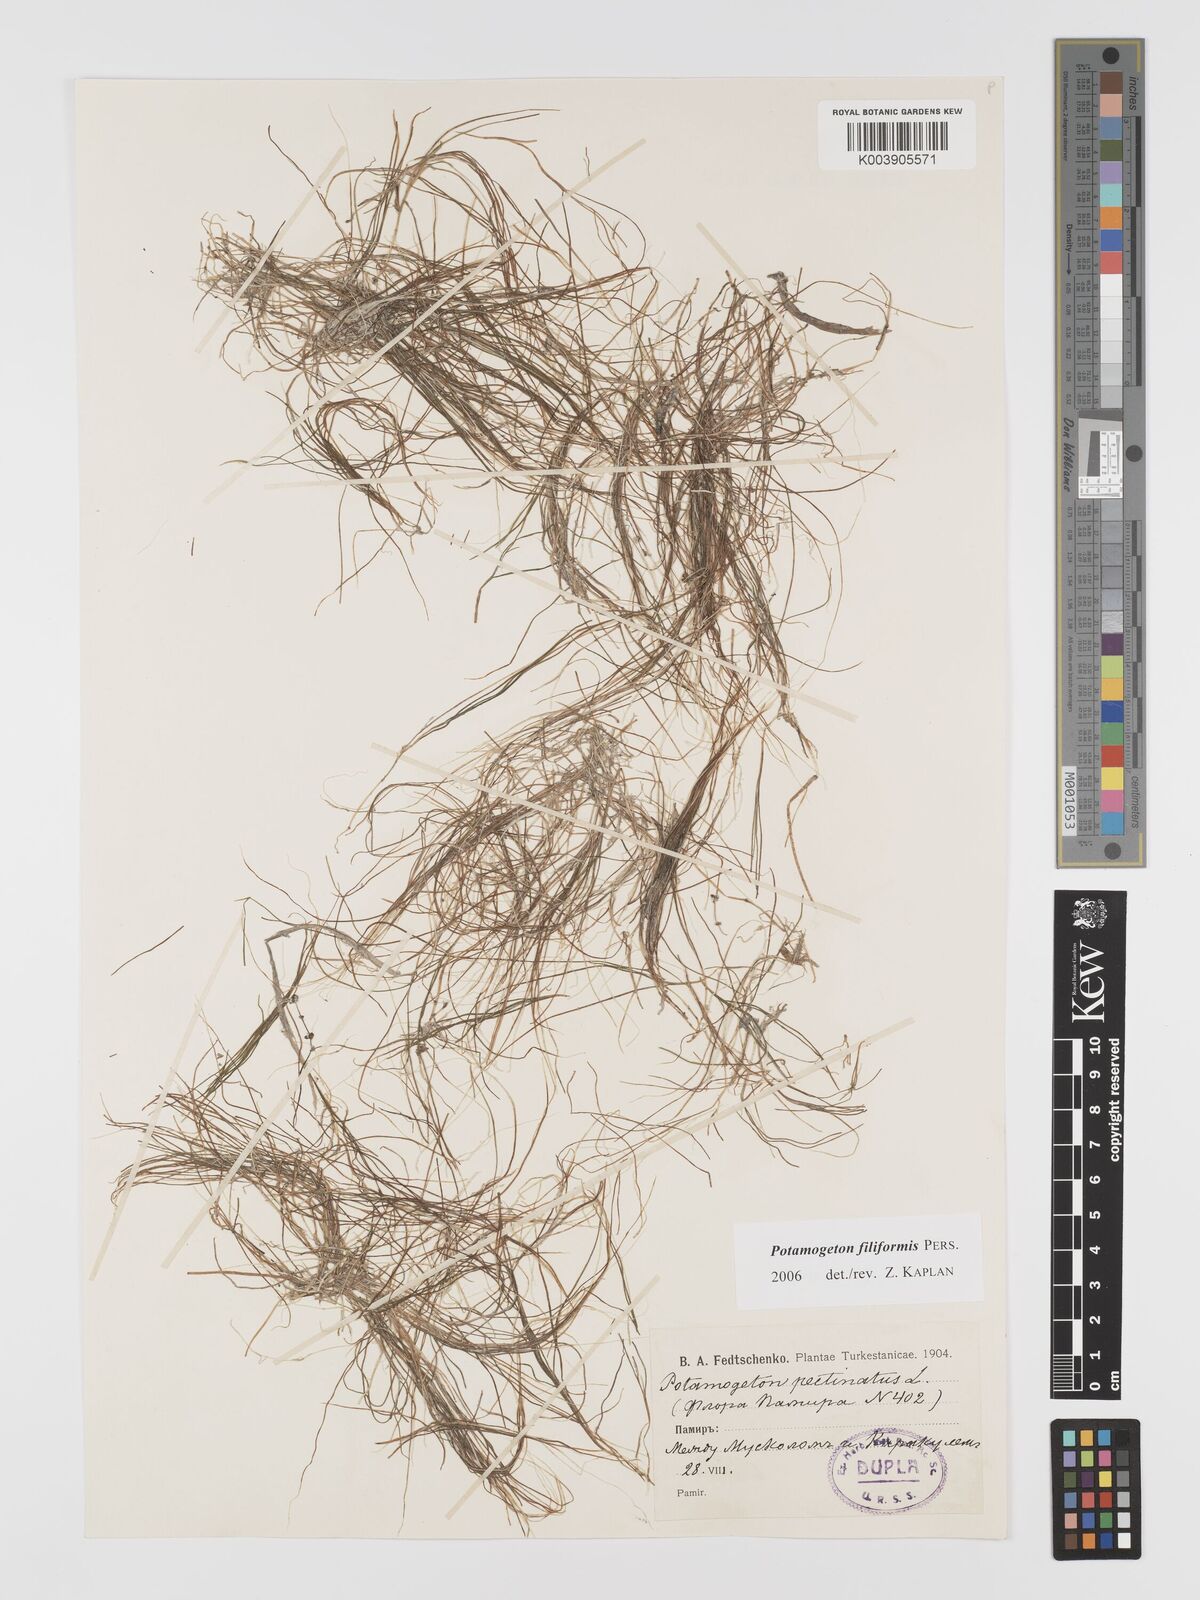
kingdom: Plantae
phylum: Tracheophyta
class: Liliopsida
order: Alismatales
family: Potamogetonaceae
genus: Stuckenia
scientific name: Stuckenia filiformis
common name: Alpine thread-leaved pondweed
